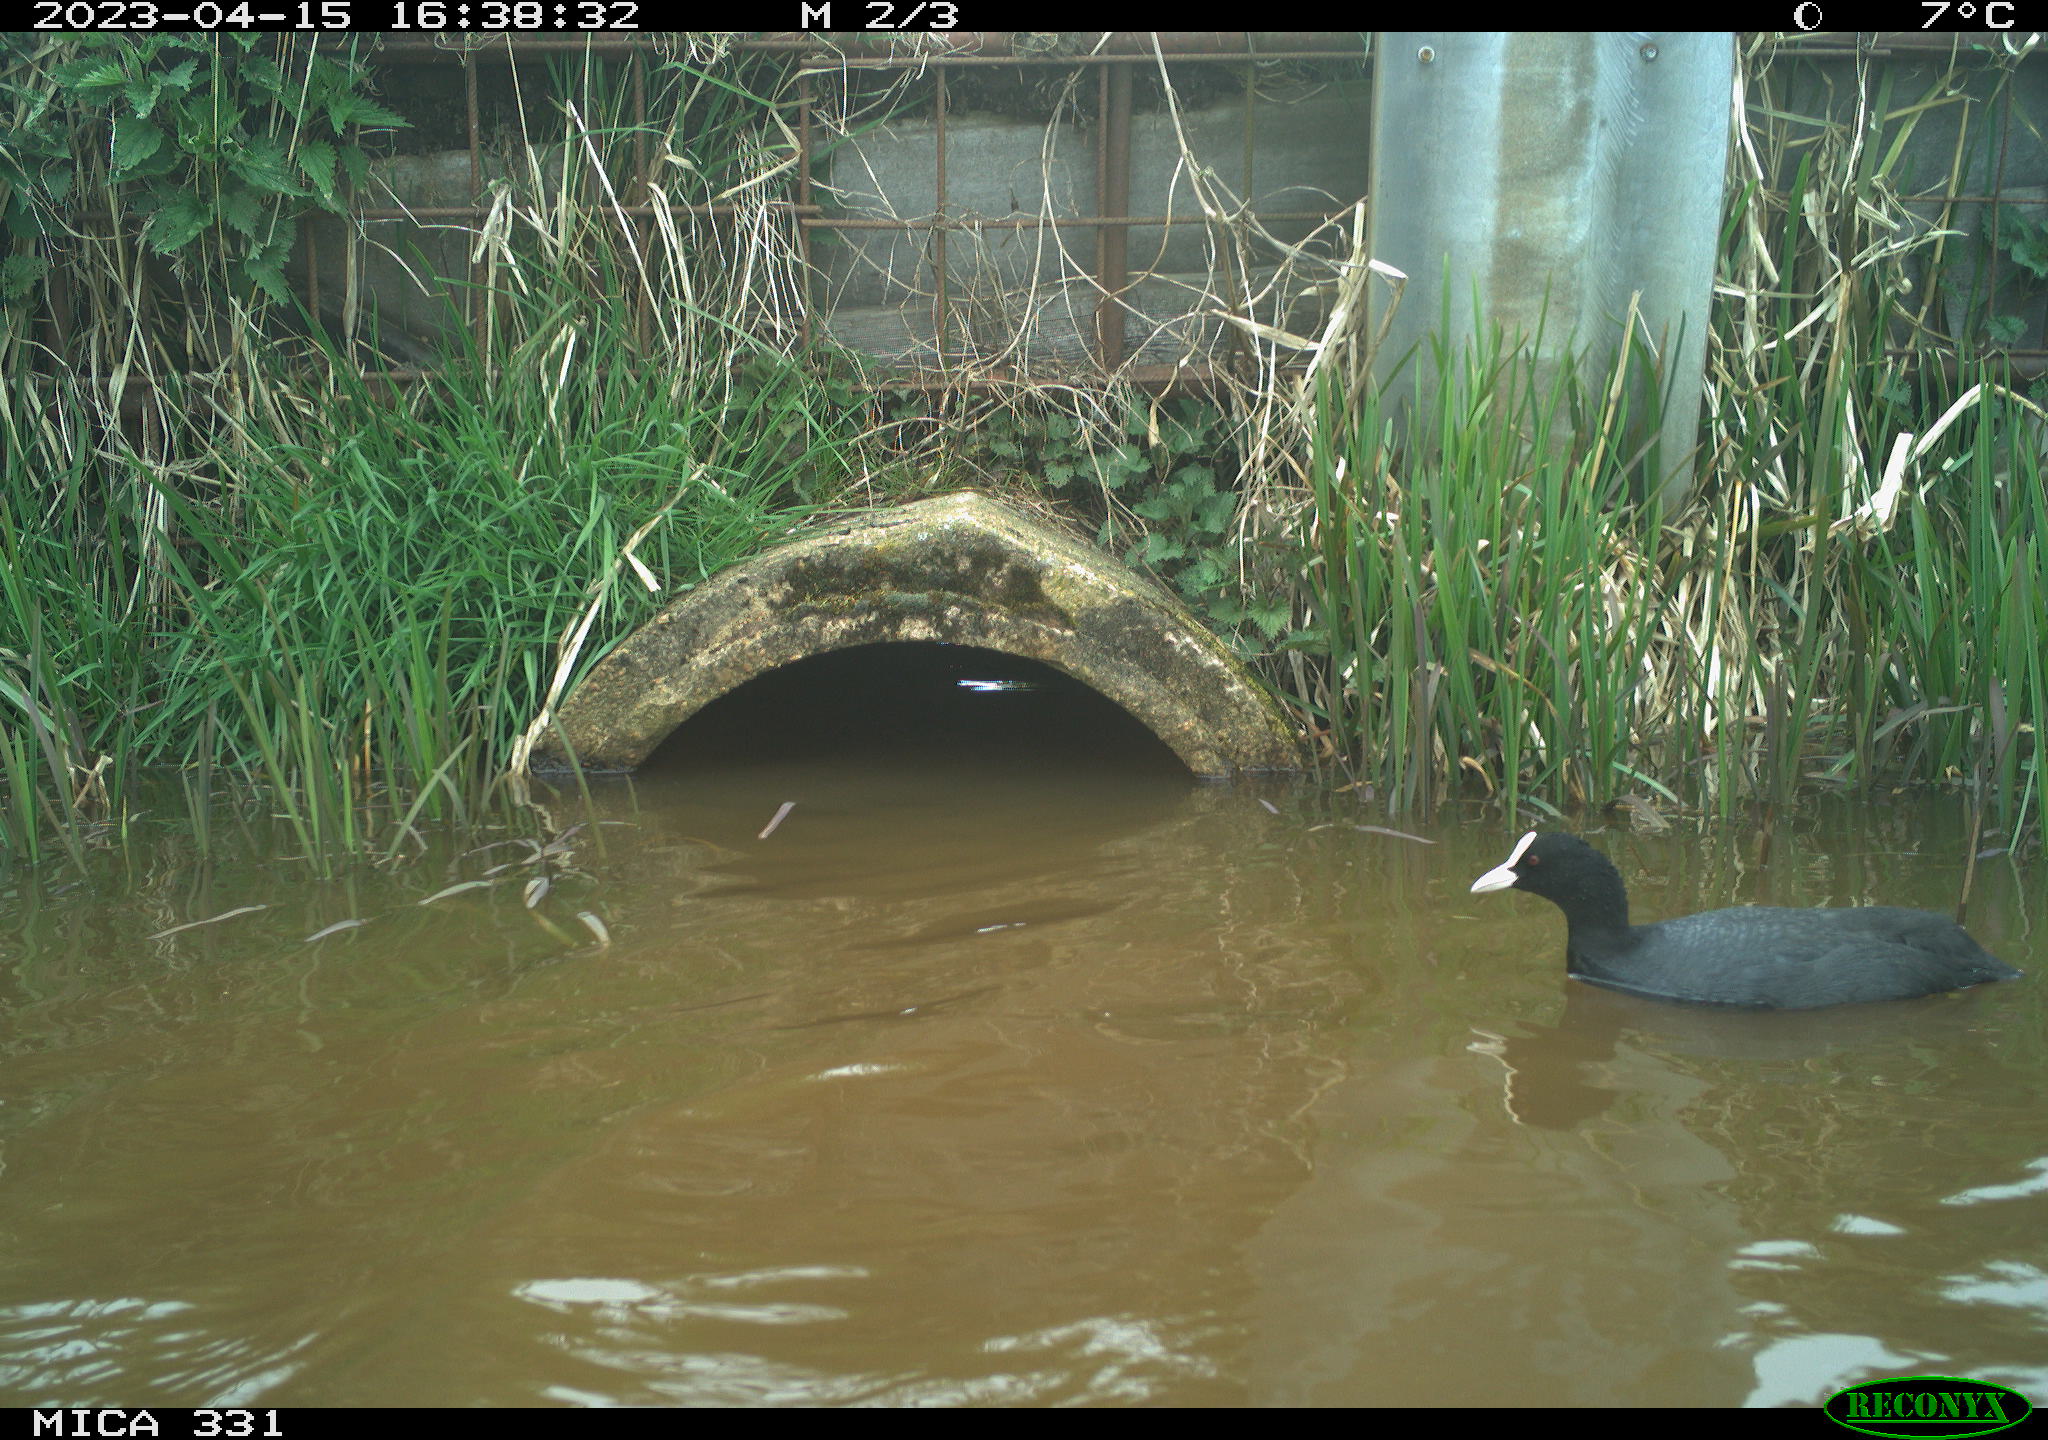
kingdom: Animalia
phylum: Chordata
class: Aves
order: Gruiformes
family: Rallidae
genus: Fulica
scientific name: Fulica atra
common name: Eurasian coot
